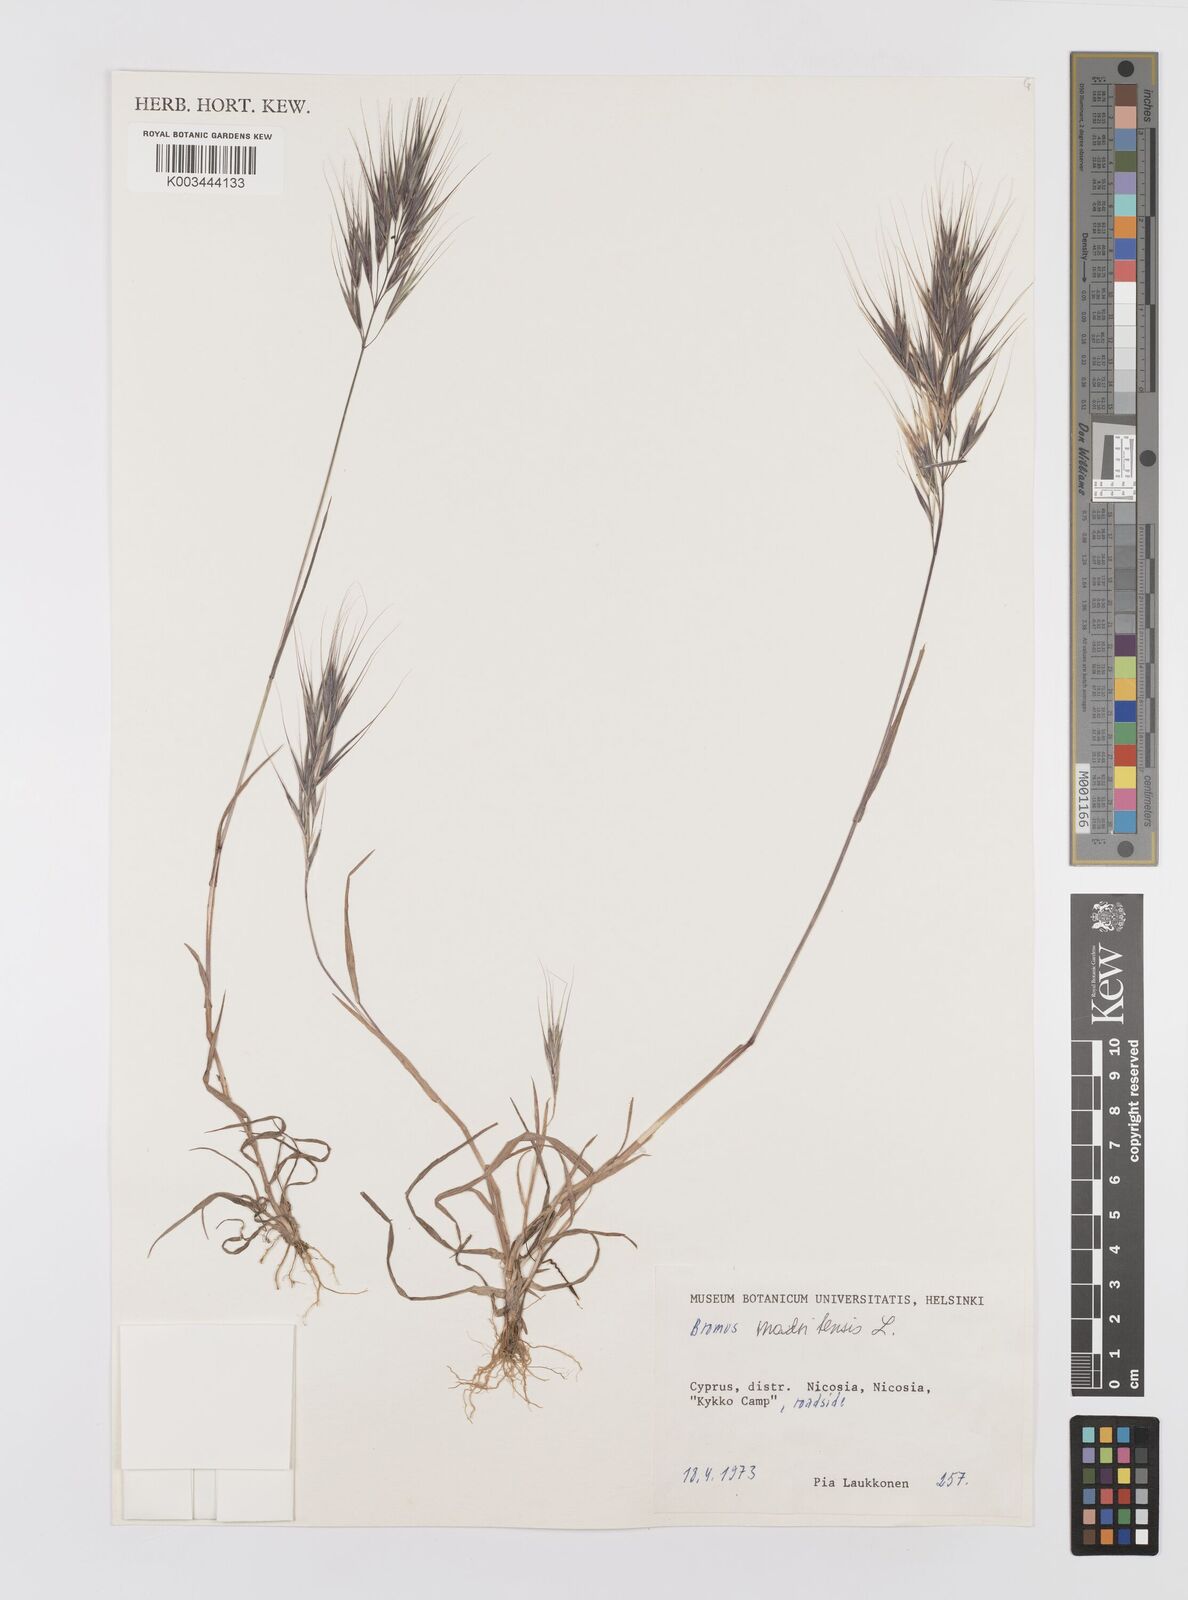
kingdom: Plantae
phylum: Tracheophyta
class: Liliopsida
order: Poales
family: Poaceae
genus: Bromus
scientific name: Bromus madritensis
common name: Compact brome
